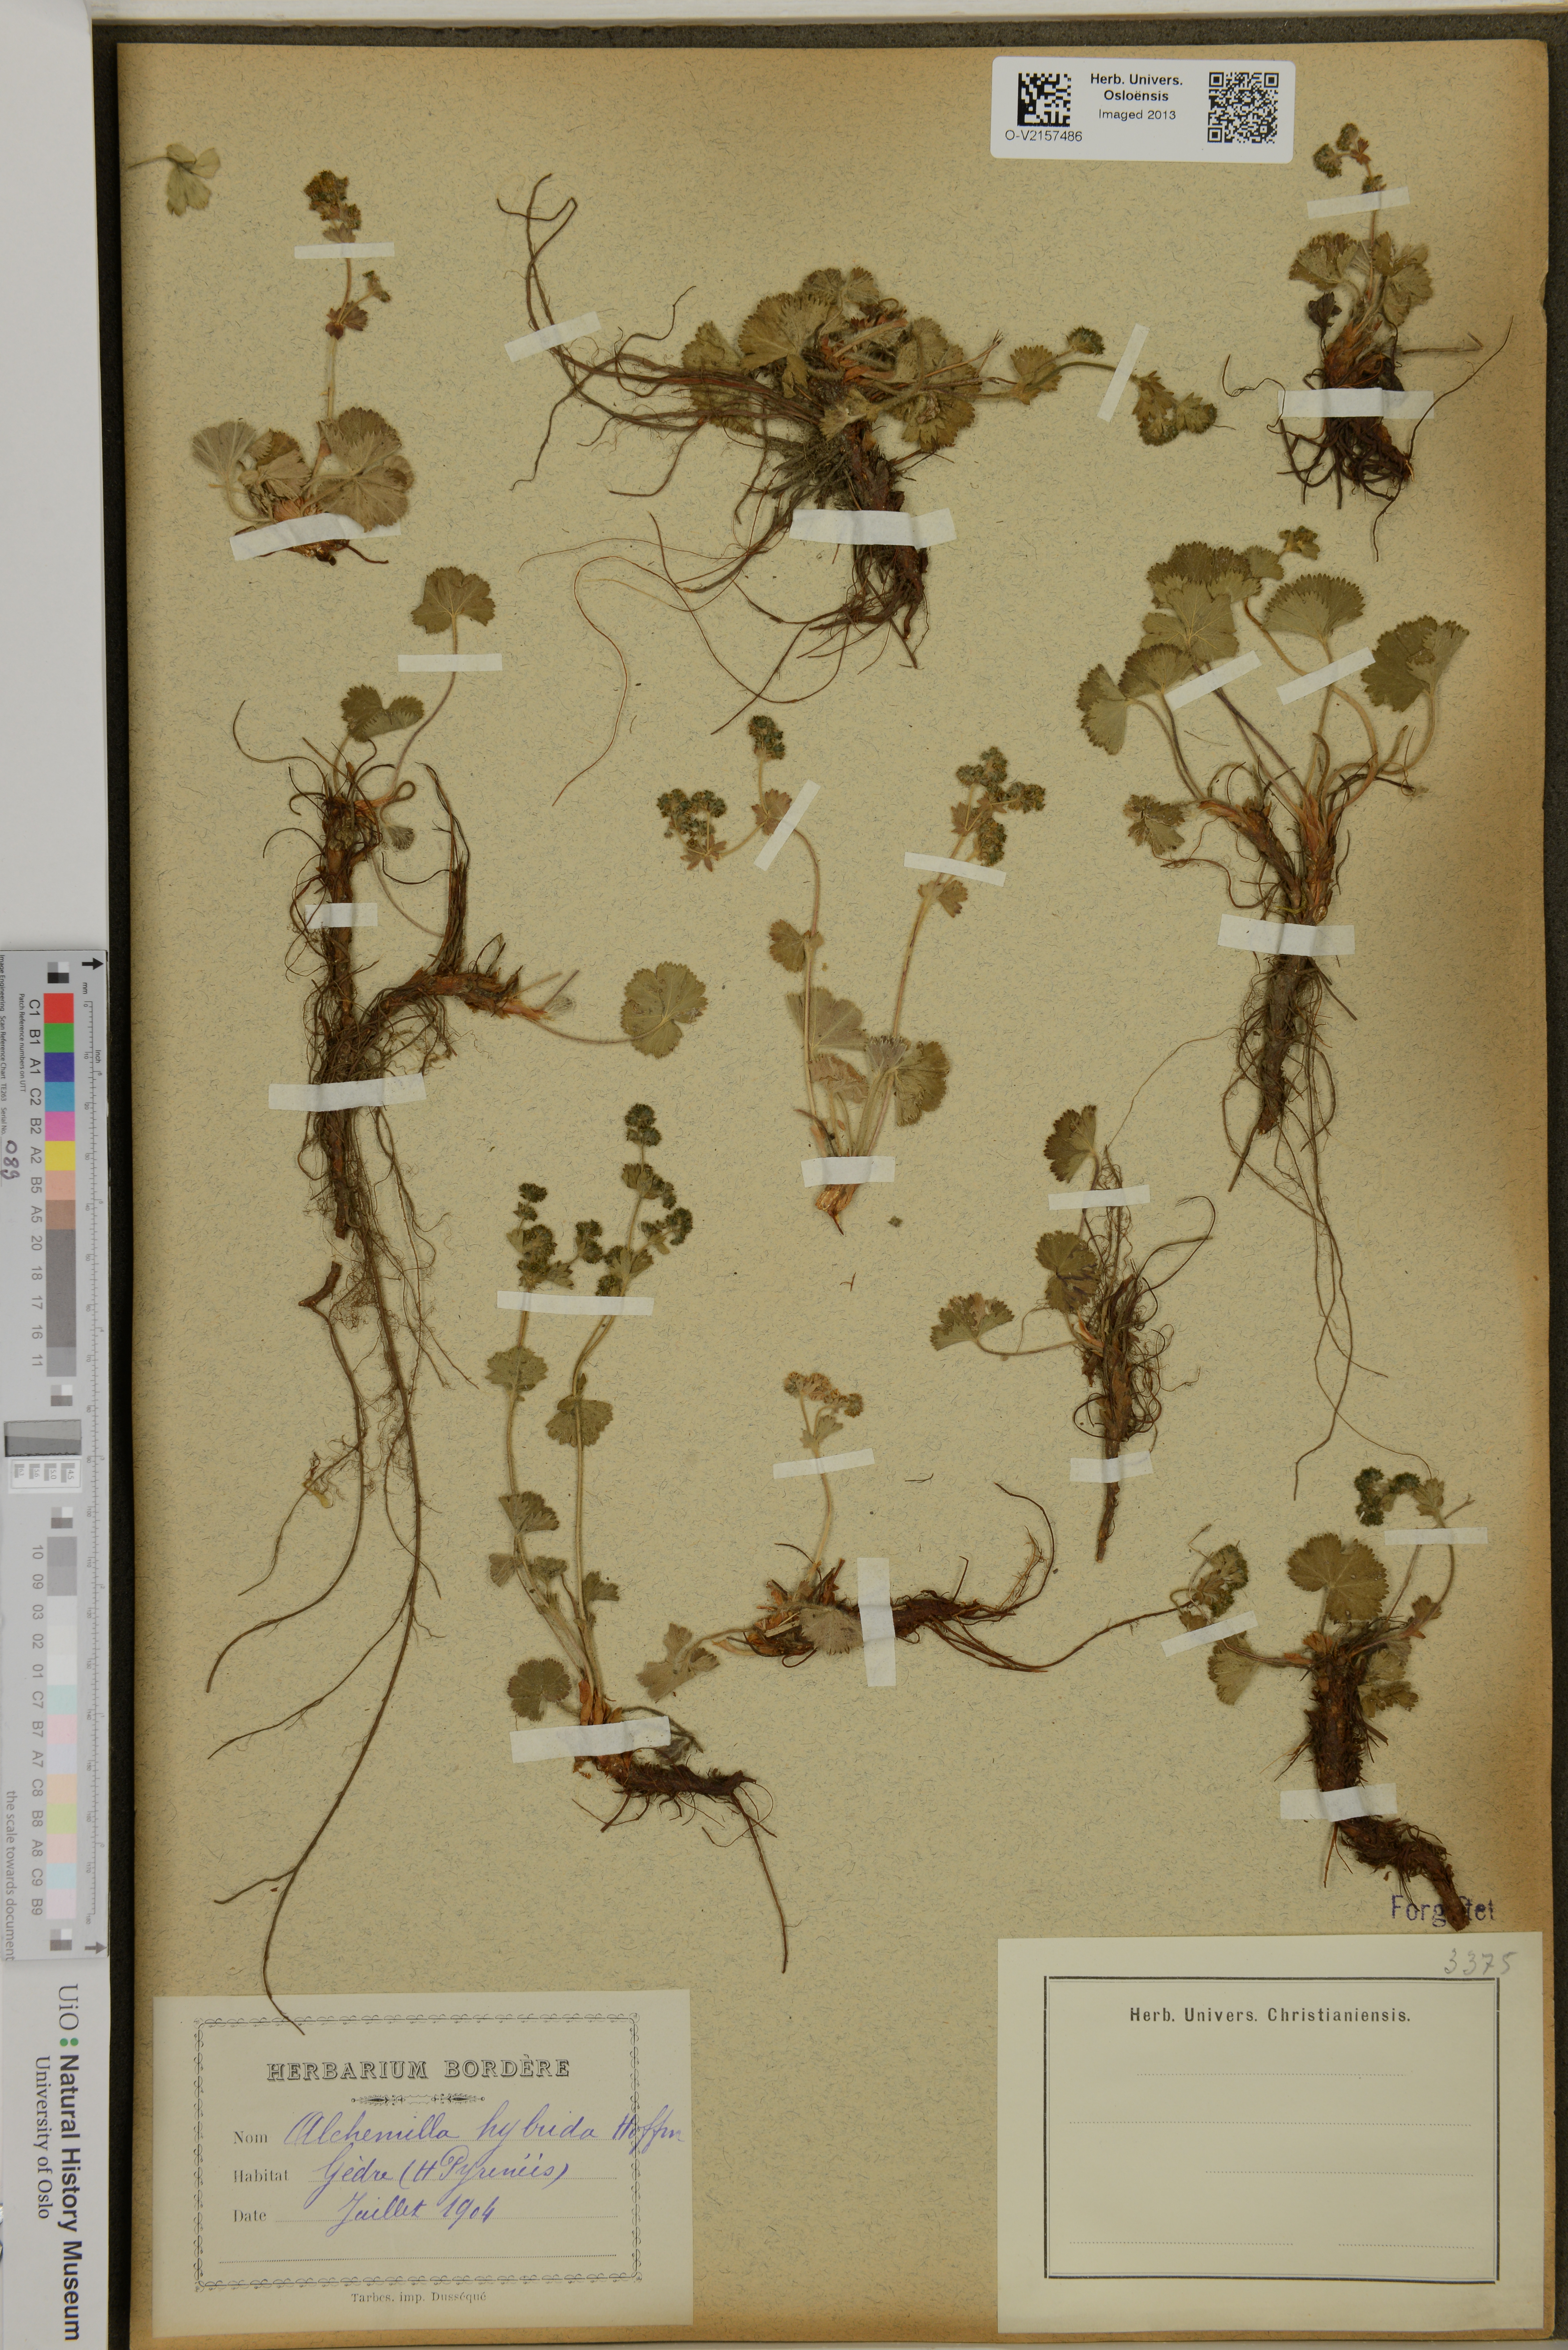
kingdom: Plantae
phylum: Tracheophyta
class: Magnoliopsida
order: Rosales
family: Rosaceae
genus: Alchemilla
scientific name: Alchemilla hybrida
